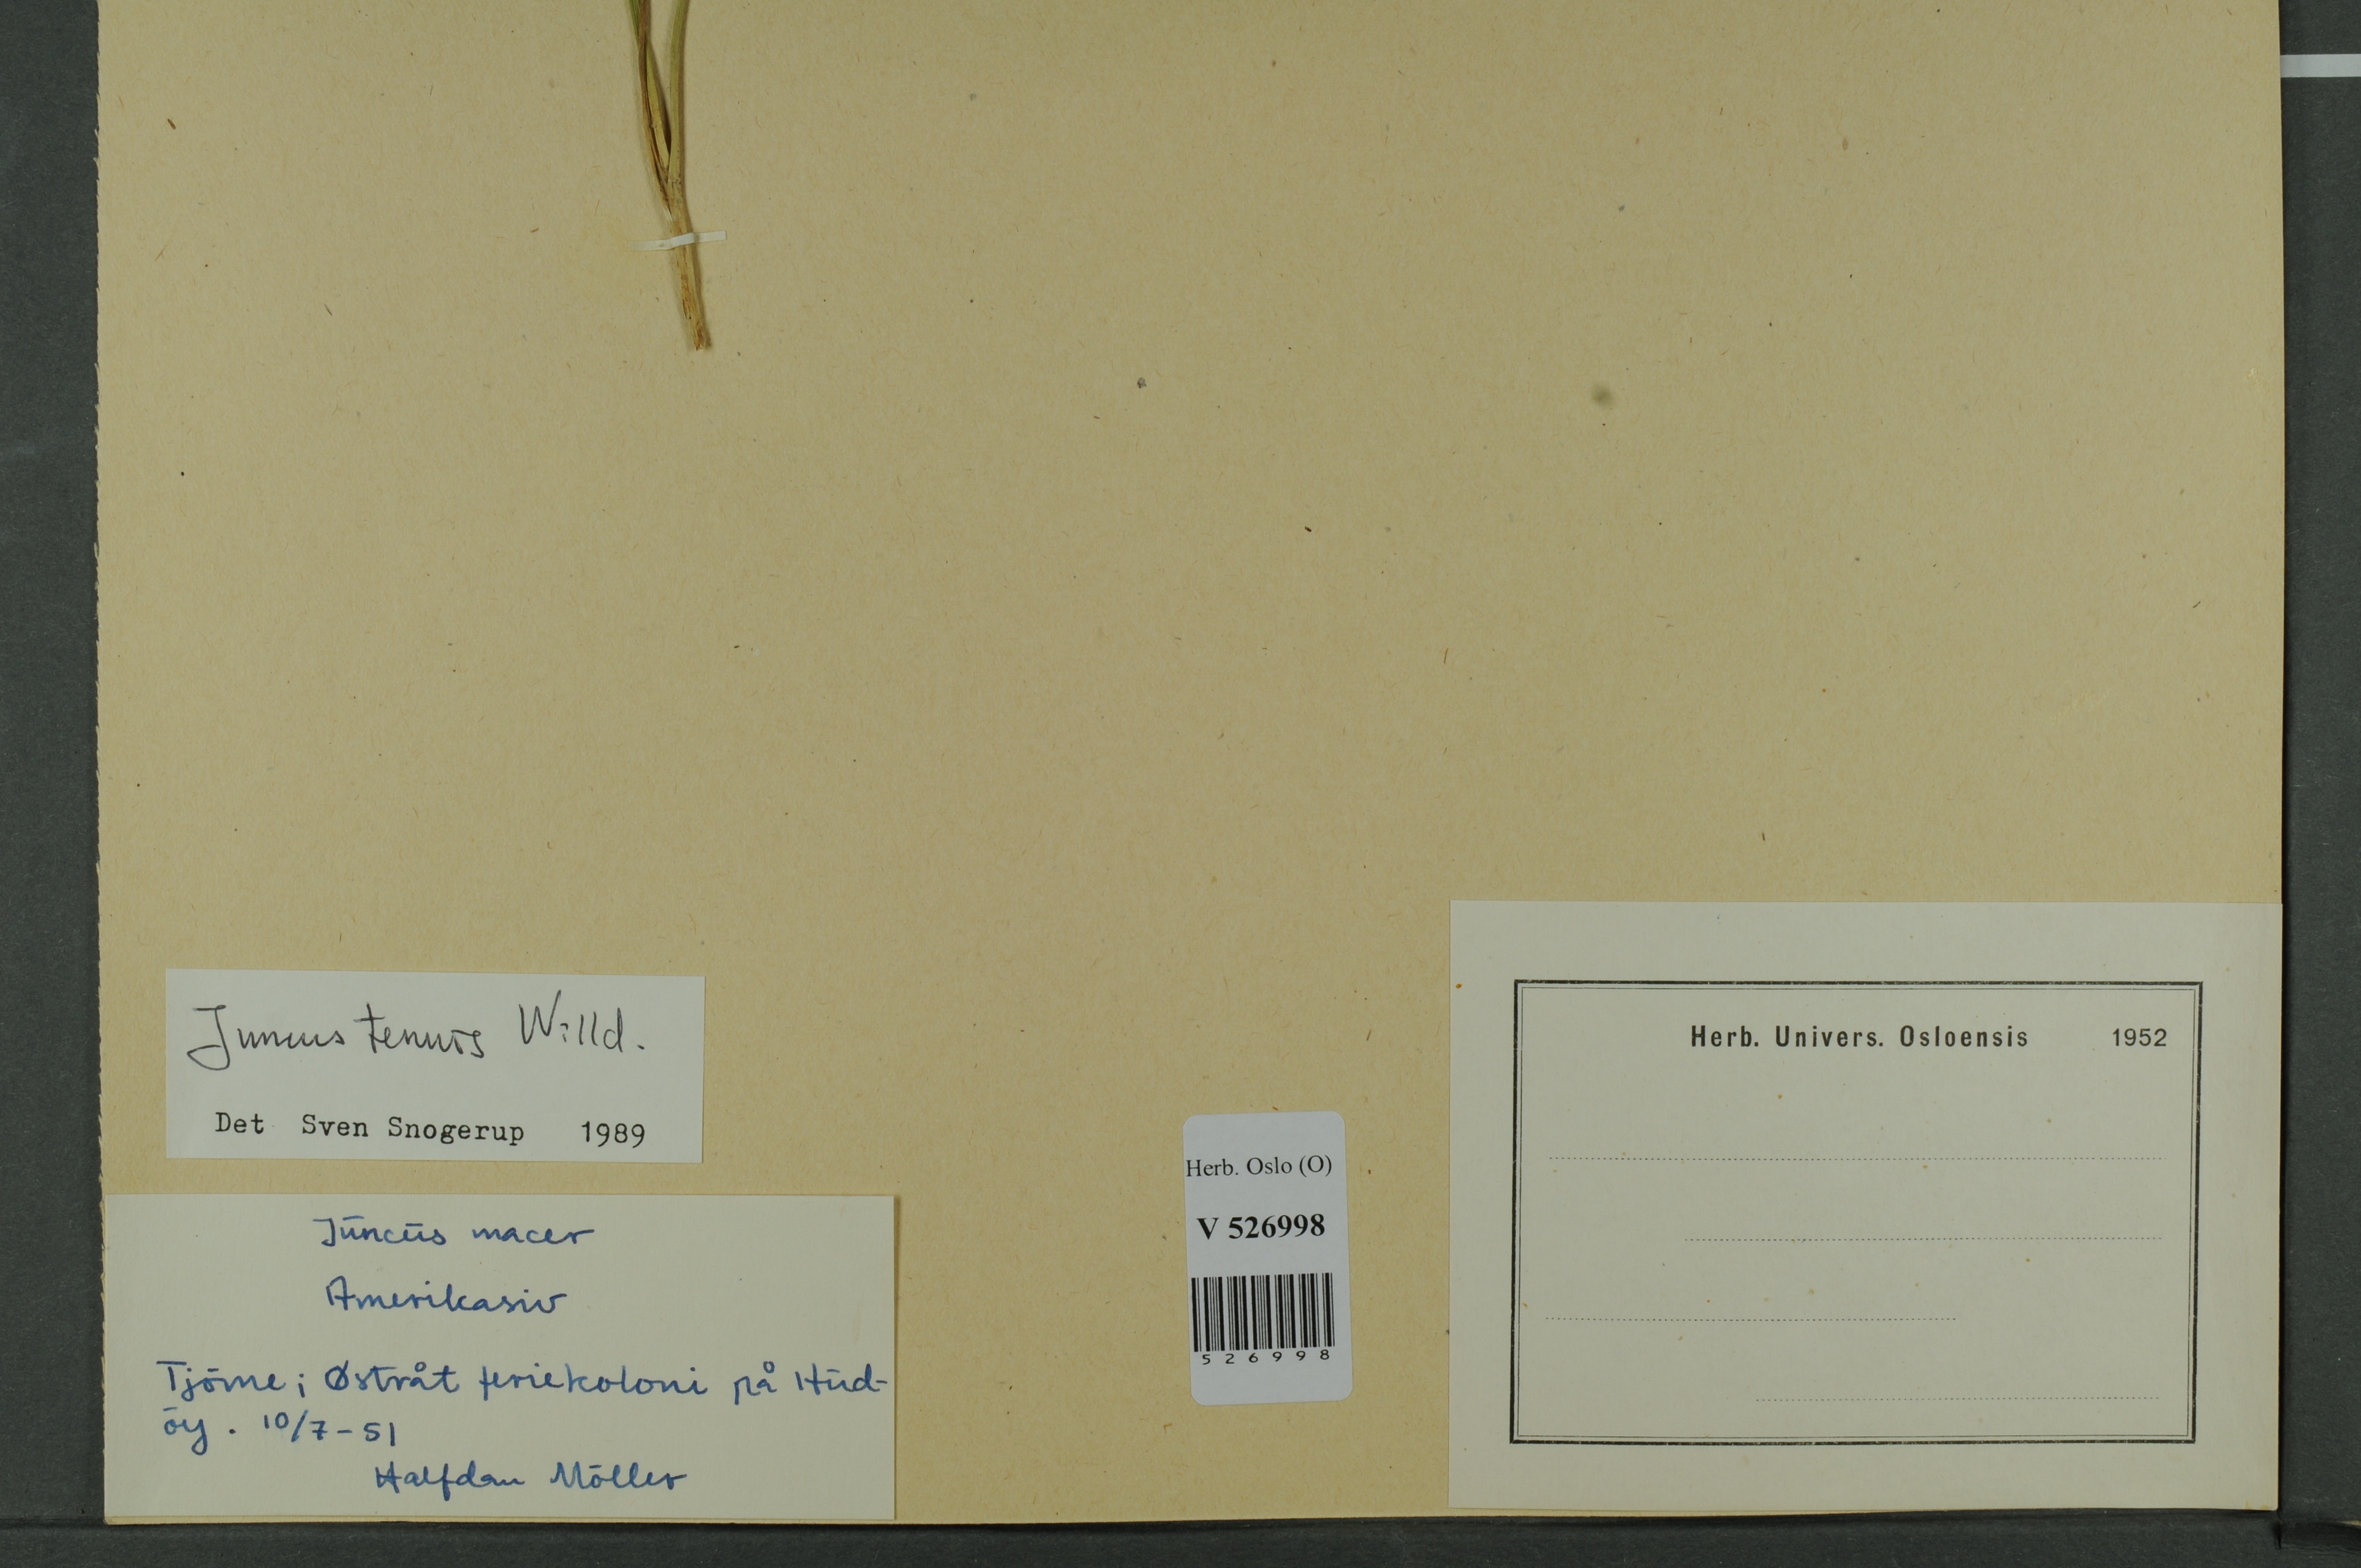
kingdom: Plantae
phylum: Tracheophyta
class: Liliopsida
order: Poales
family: Juncaceae
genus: Juncus
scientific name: Juncus tenuis
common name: Slender rush
